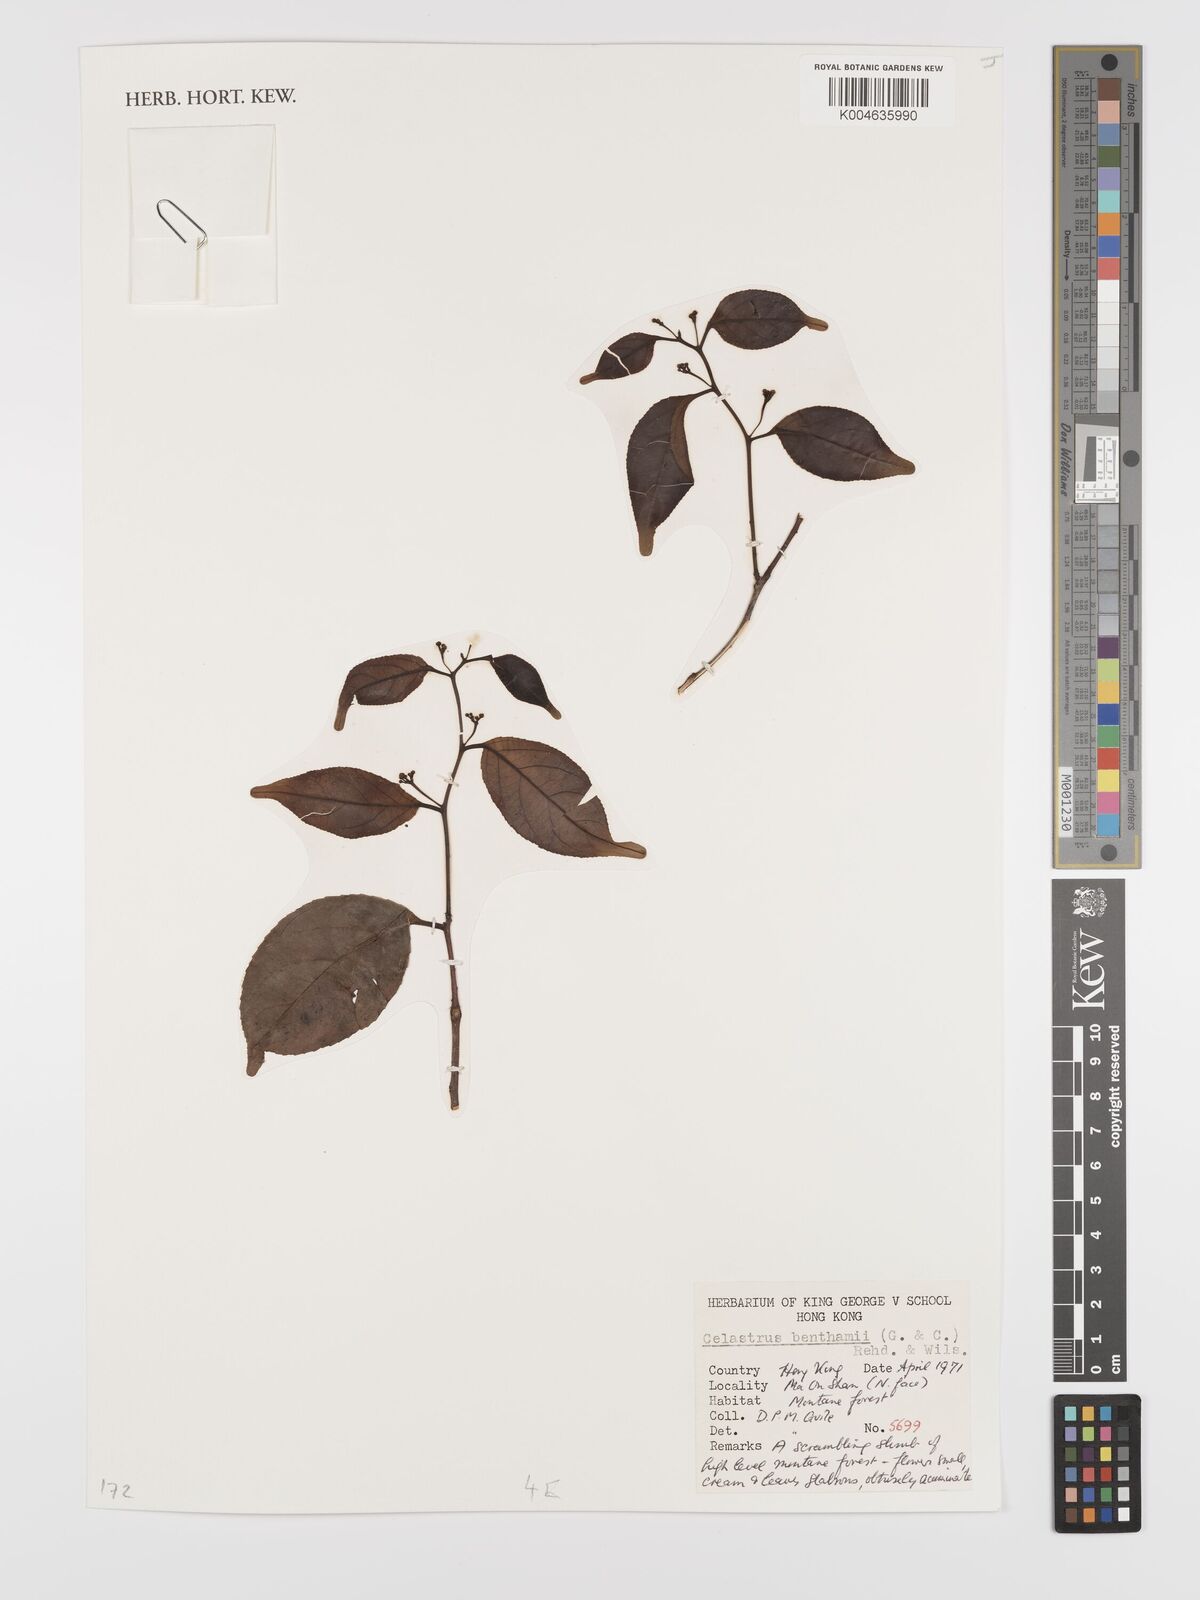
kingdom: Plantae
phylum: Tracheophyta
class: Magnoliopsida
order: Celastrales
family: Celastraceae
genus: Celastrus
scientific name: Celastrus monospermus
